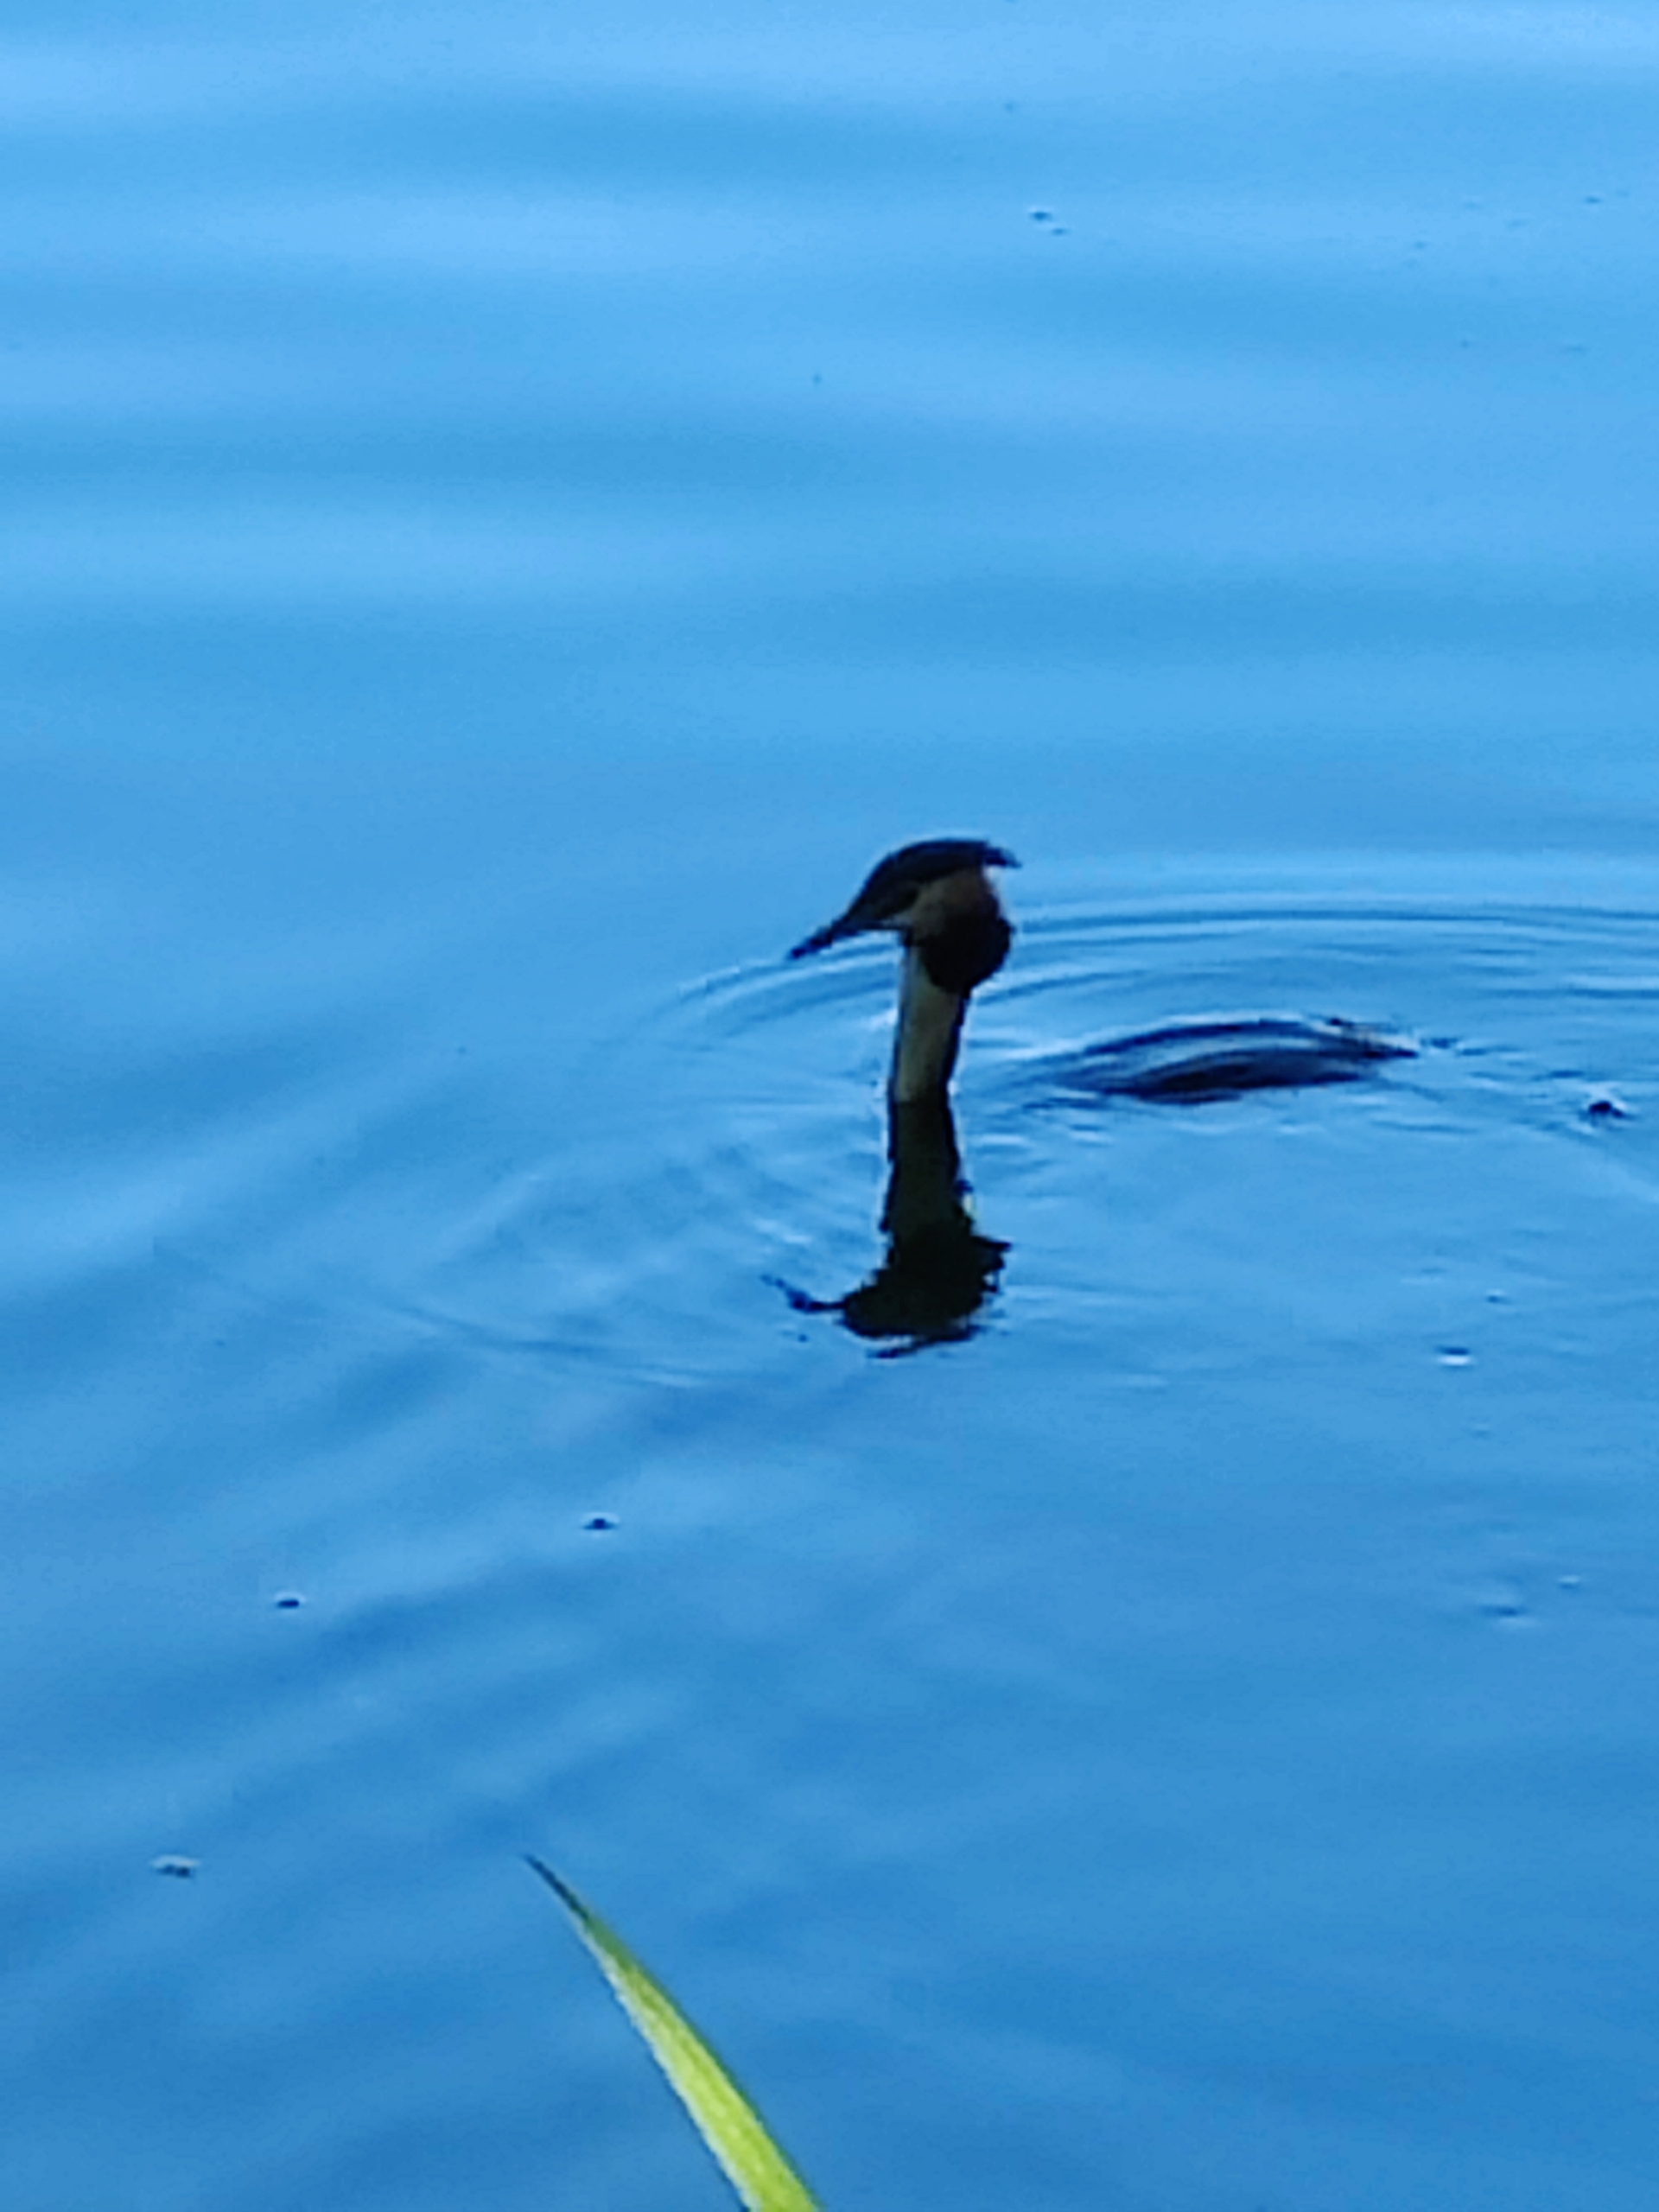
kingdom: Animalia
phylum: Chordata
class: Aves
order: Podicipediformes
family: Podicipedidae
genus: Podiceps
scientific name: Podiceps cristatus
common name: Toppet lappedykker
